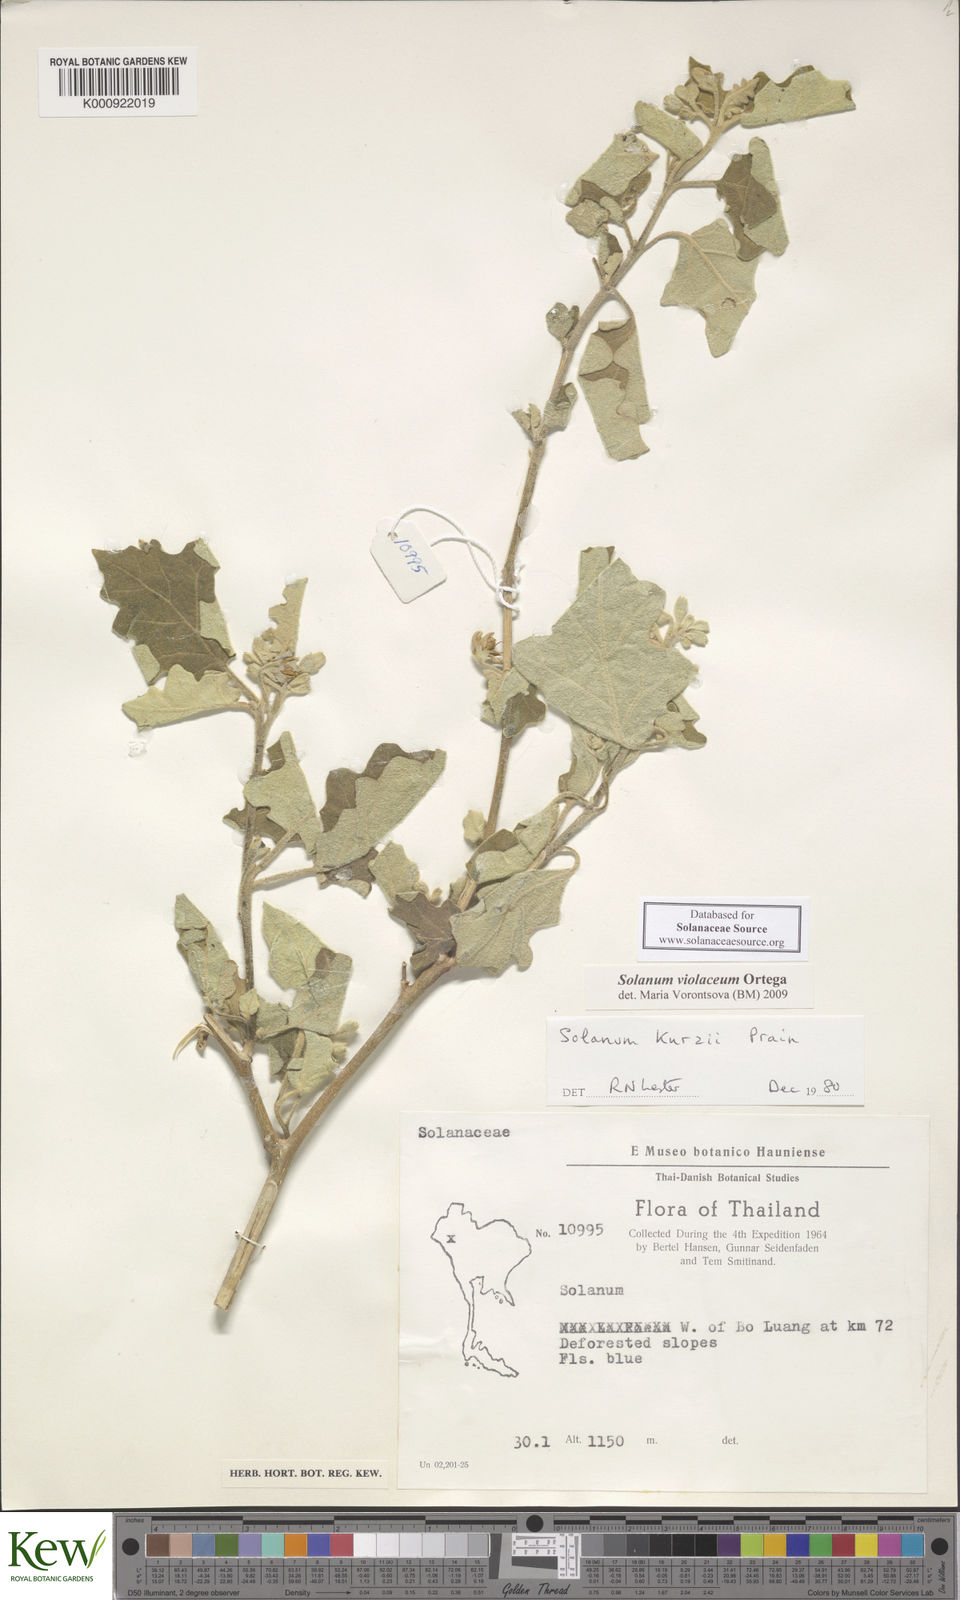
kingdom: Plantae
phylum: Tracheophyta
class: Magnoliopsida
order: Solanales
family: Solanaceae
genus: Solanum
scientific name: Solanum violaceum
